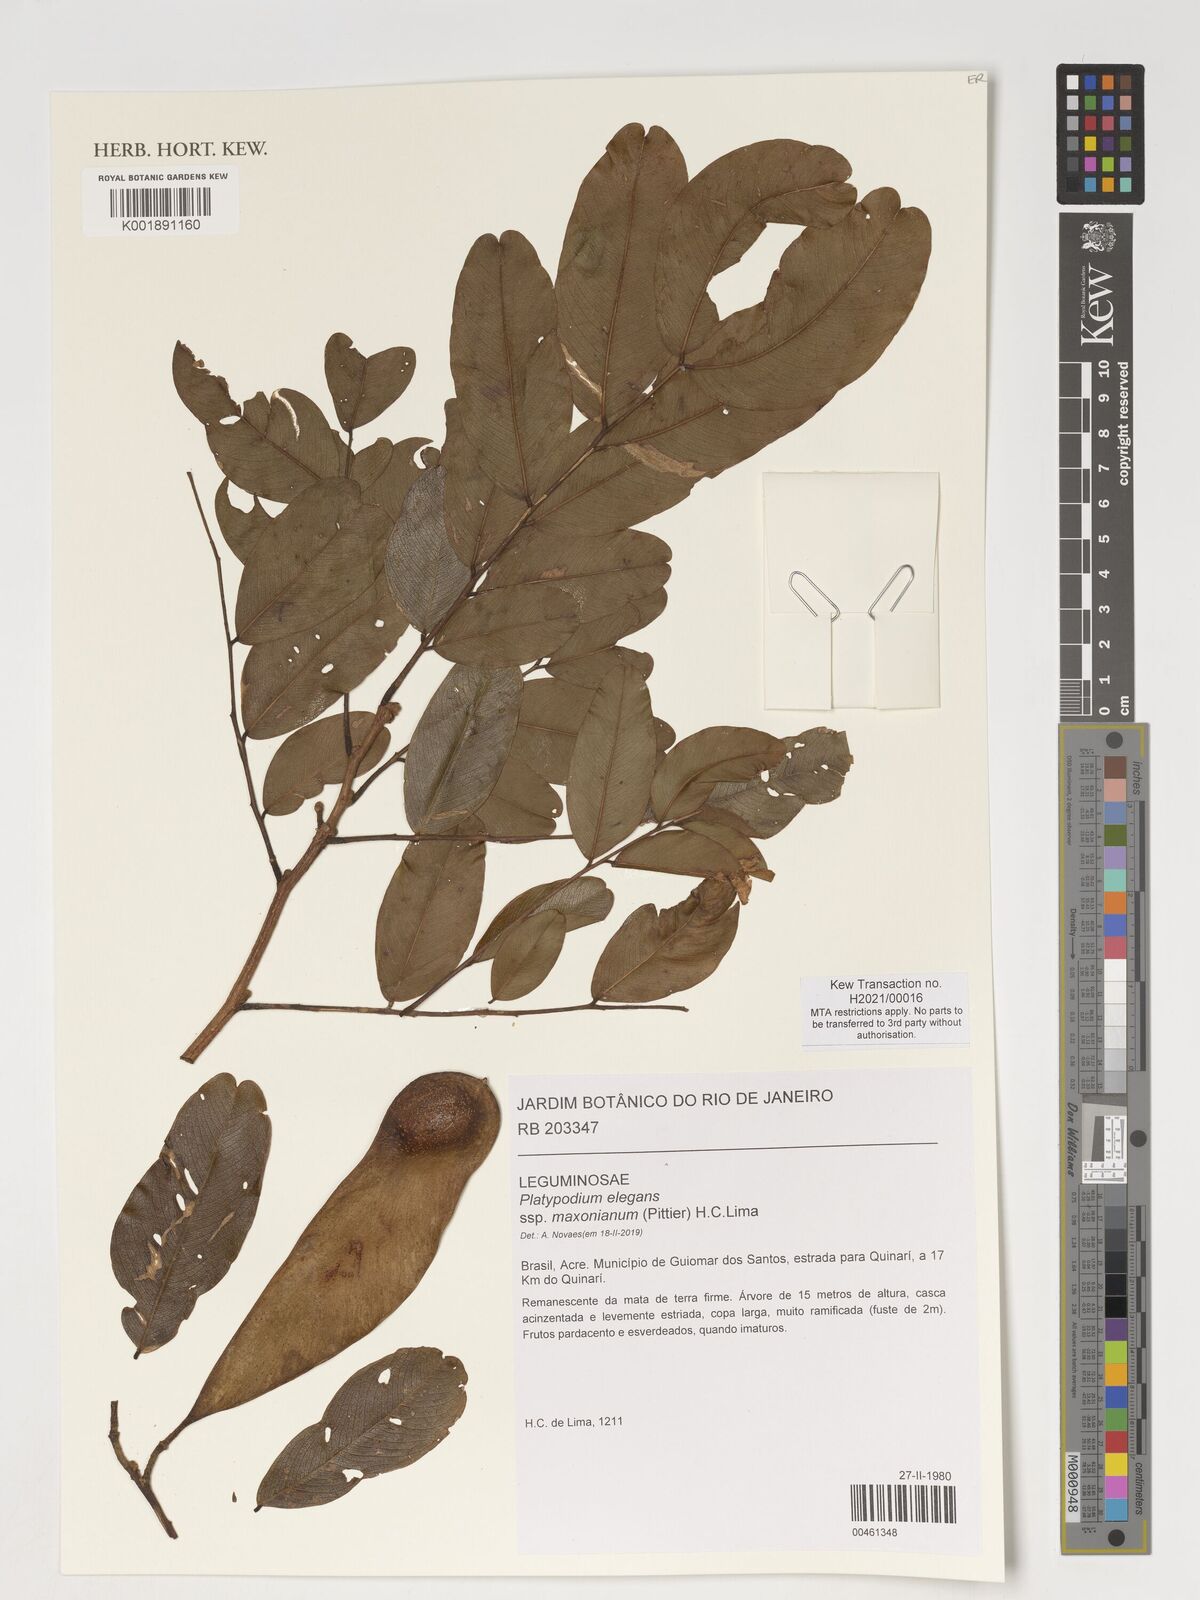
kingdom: Plantae
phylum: Tracheophyta
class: Magnoliopsida
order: Fabales
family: Fabaceae
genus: Platypodium
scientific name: Platypodium elegans
